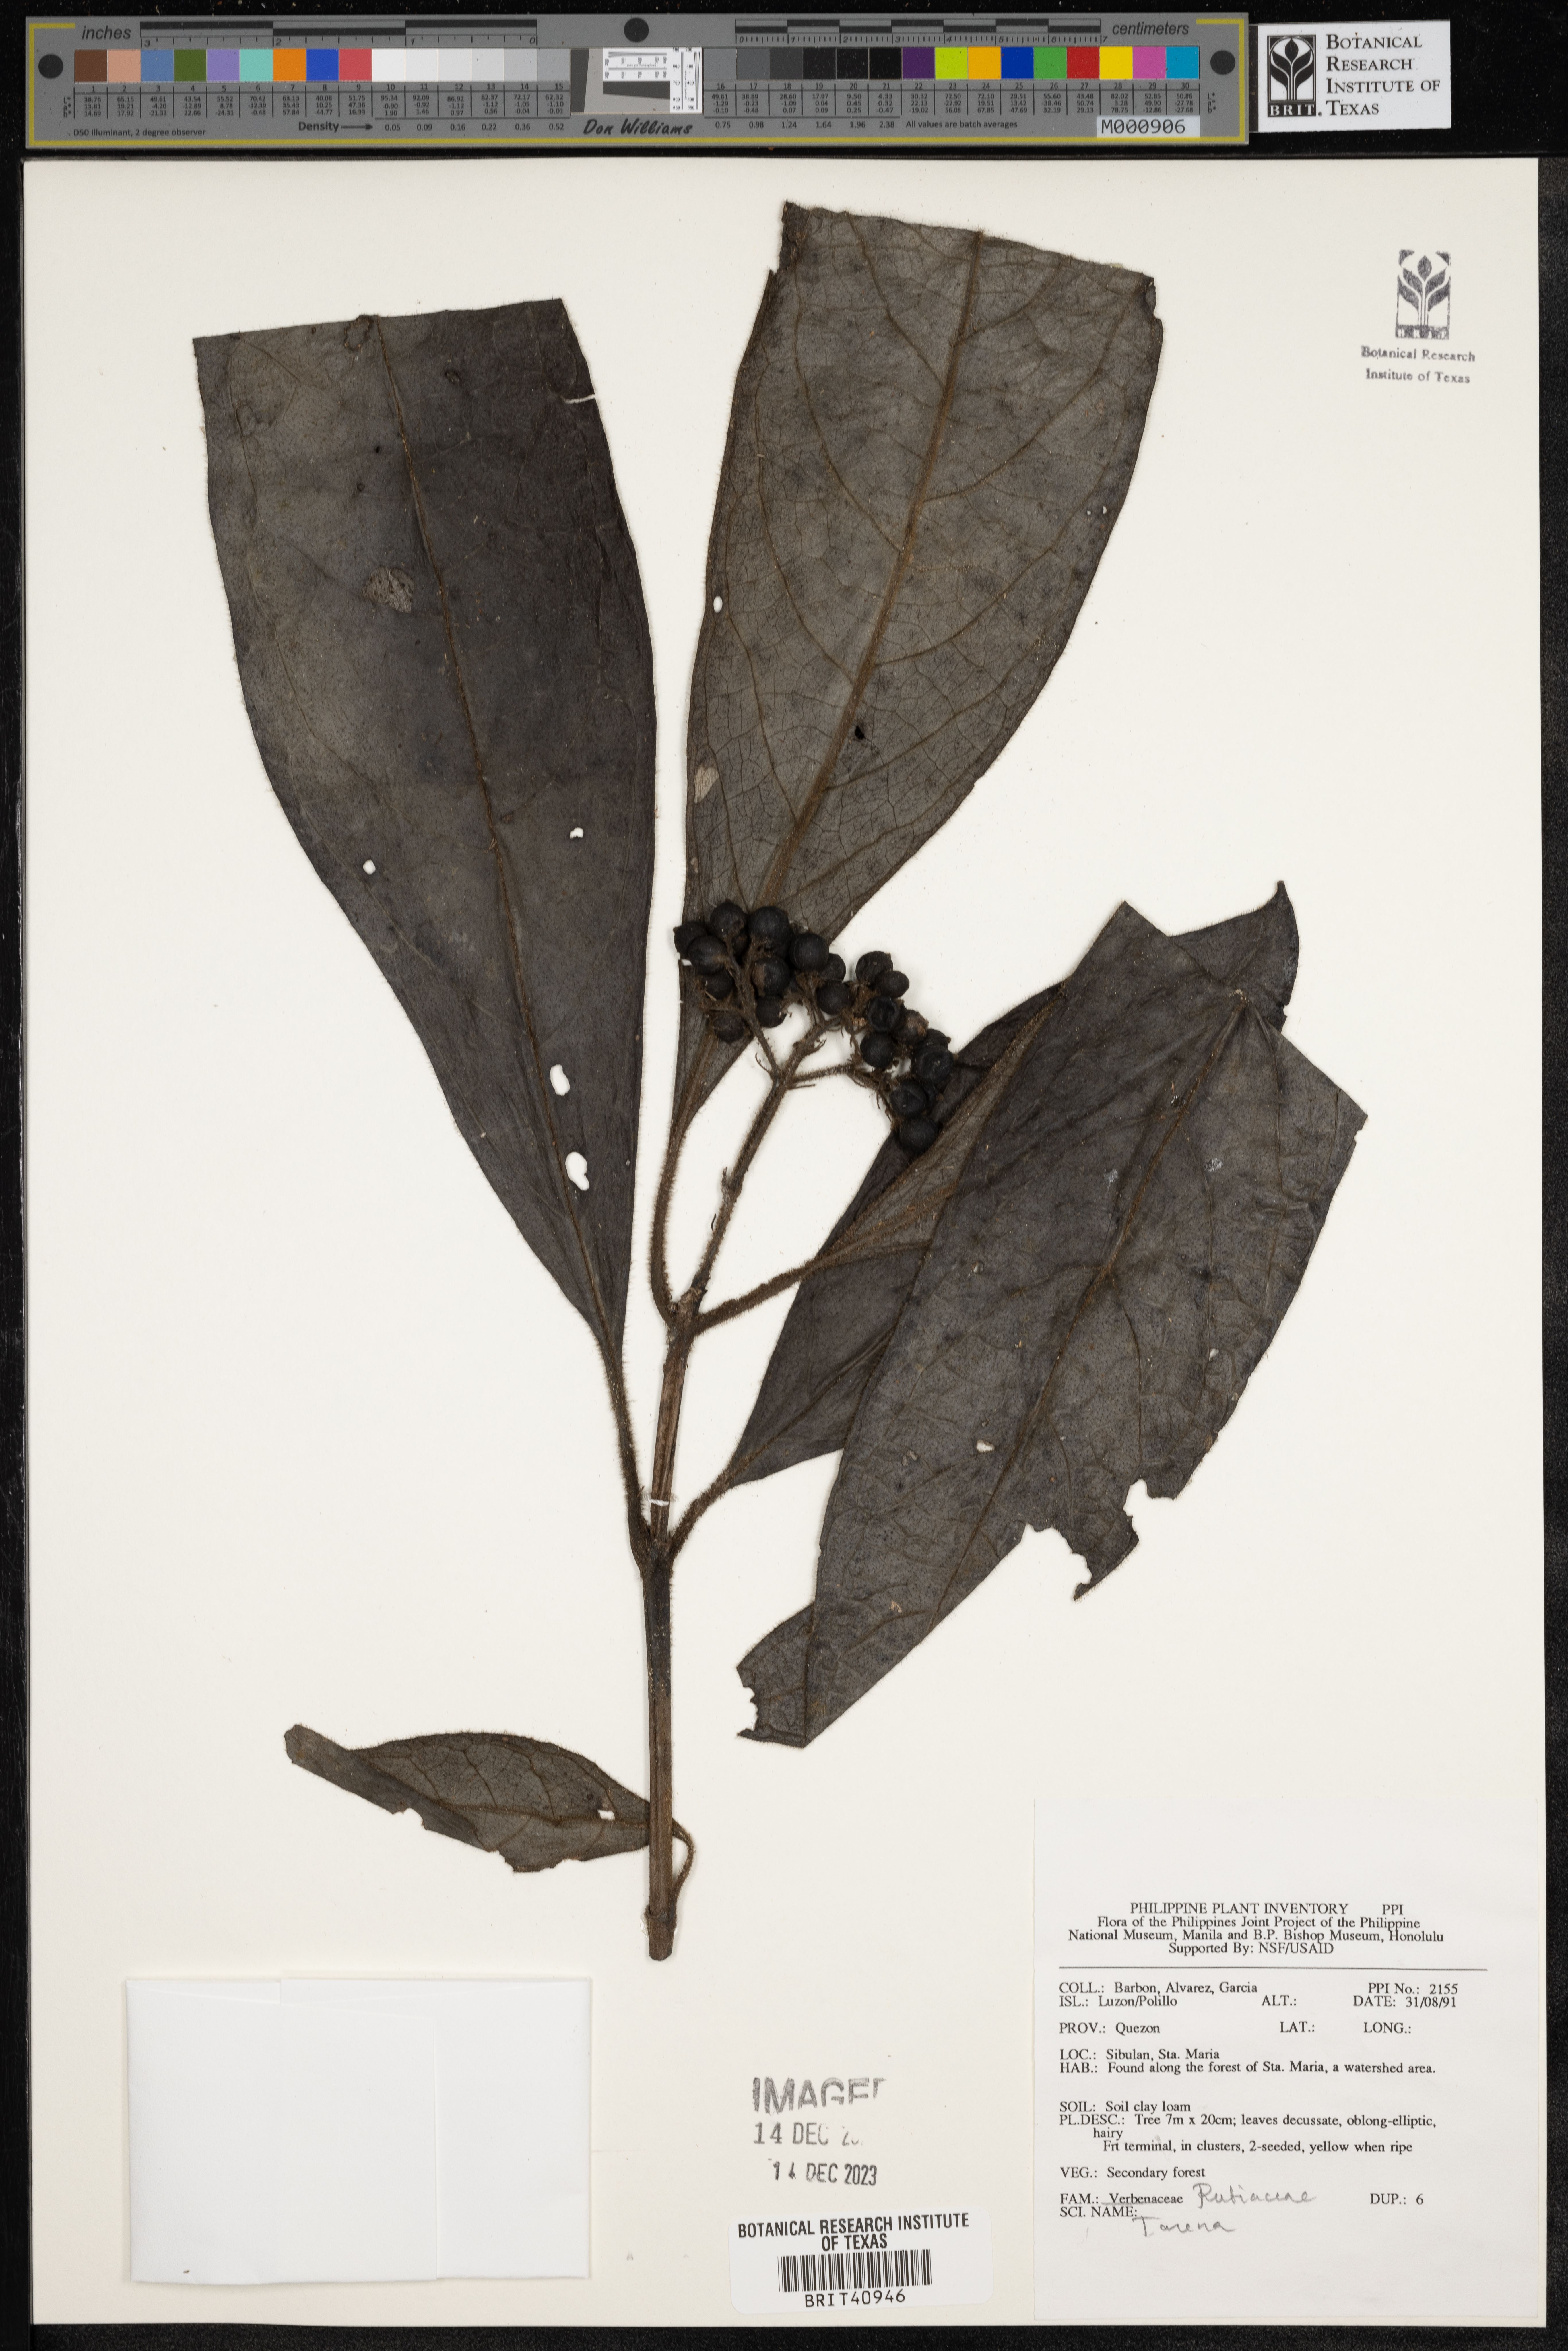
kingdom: Plantae
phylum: Tracheophyta
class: Magnoliopsida
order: Gentianales
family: Rubiaceae
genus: Tarenna
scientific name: Tarenna
